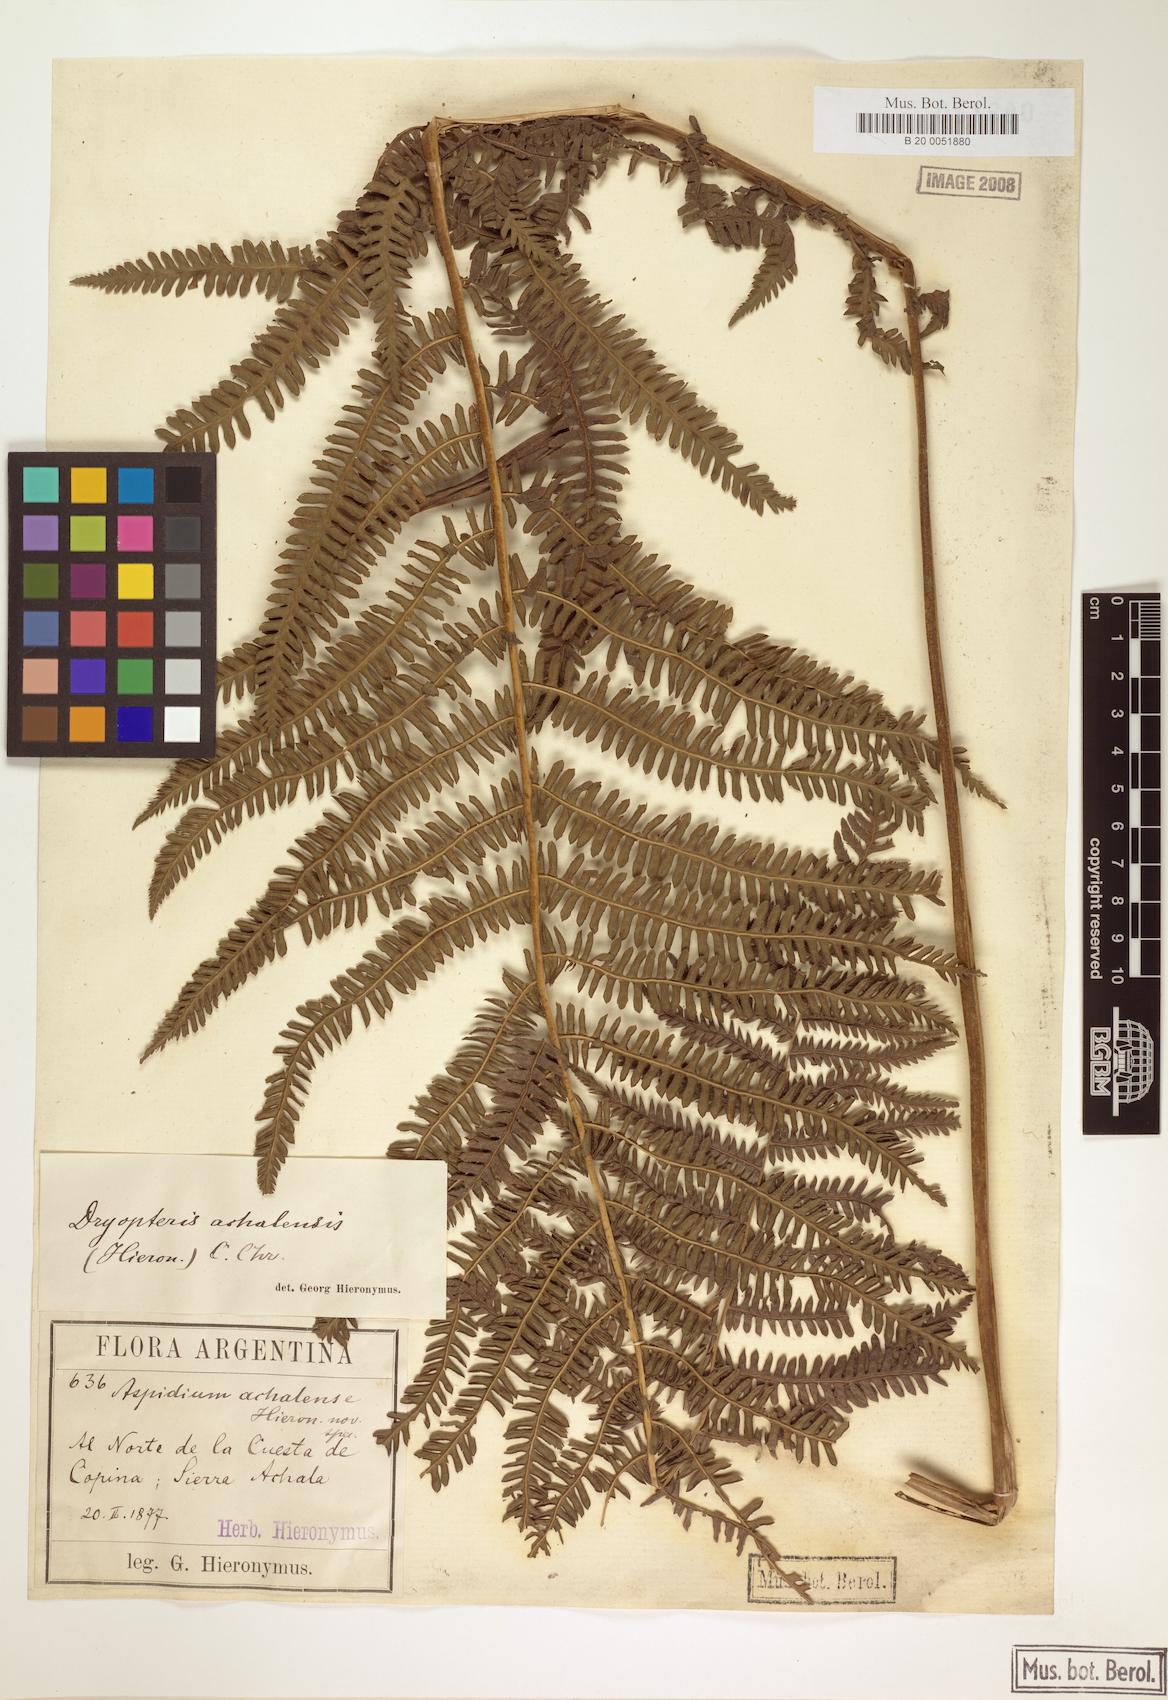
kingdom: Plantae
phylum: Tracheophyta
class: Polypodiopsida
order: Polypodiales
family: Thelypteridaceae
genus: Amauropelta
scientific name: Amauropelta achalensis
